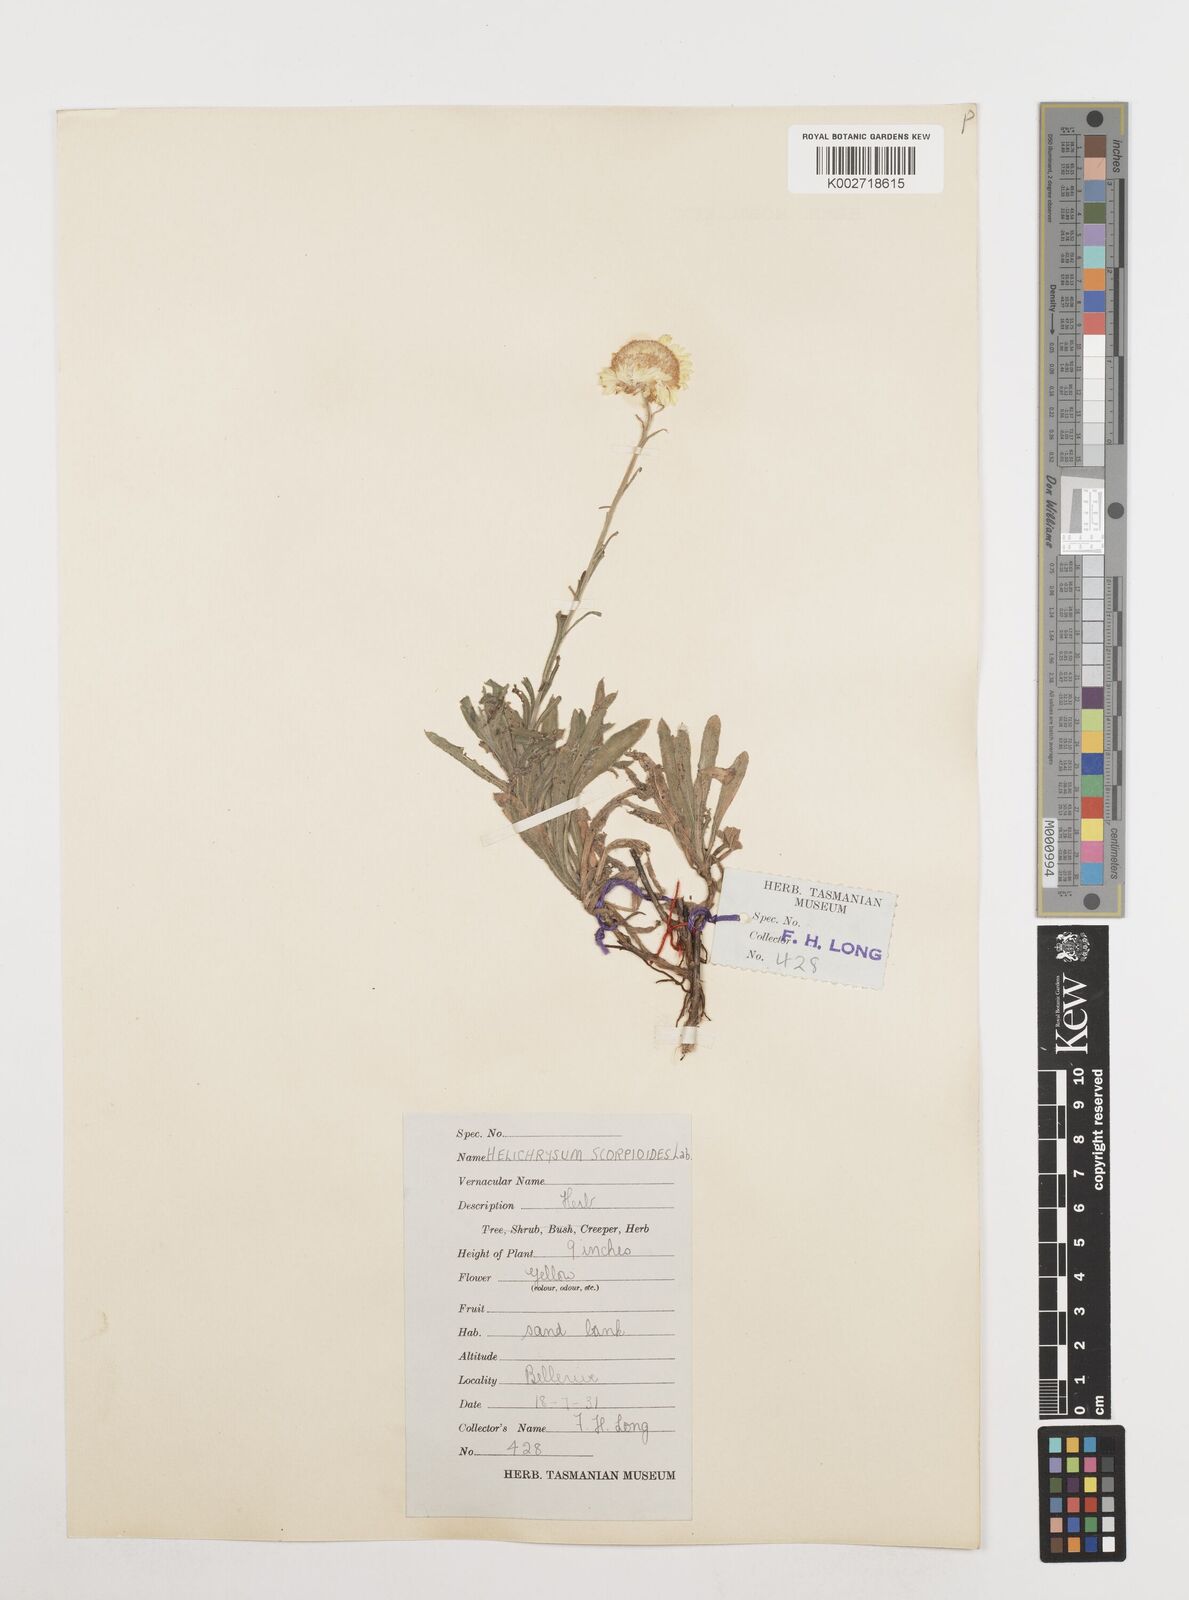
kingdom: Plantae
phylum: Tracheophyta
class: Magnoliopsida
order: Asterales
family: Asteraceae
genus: Coronidium
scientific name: Coronidium scorpioides
